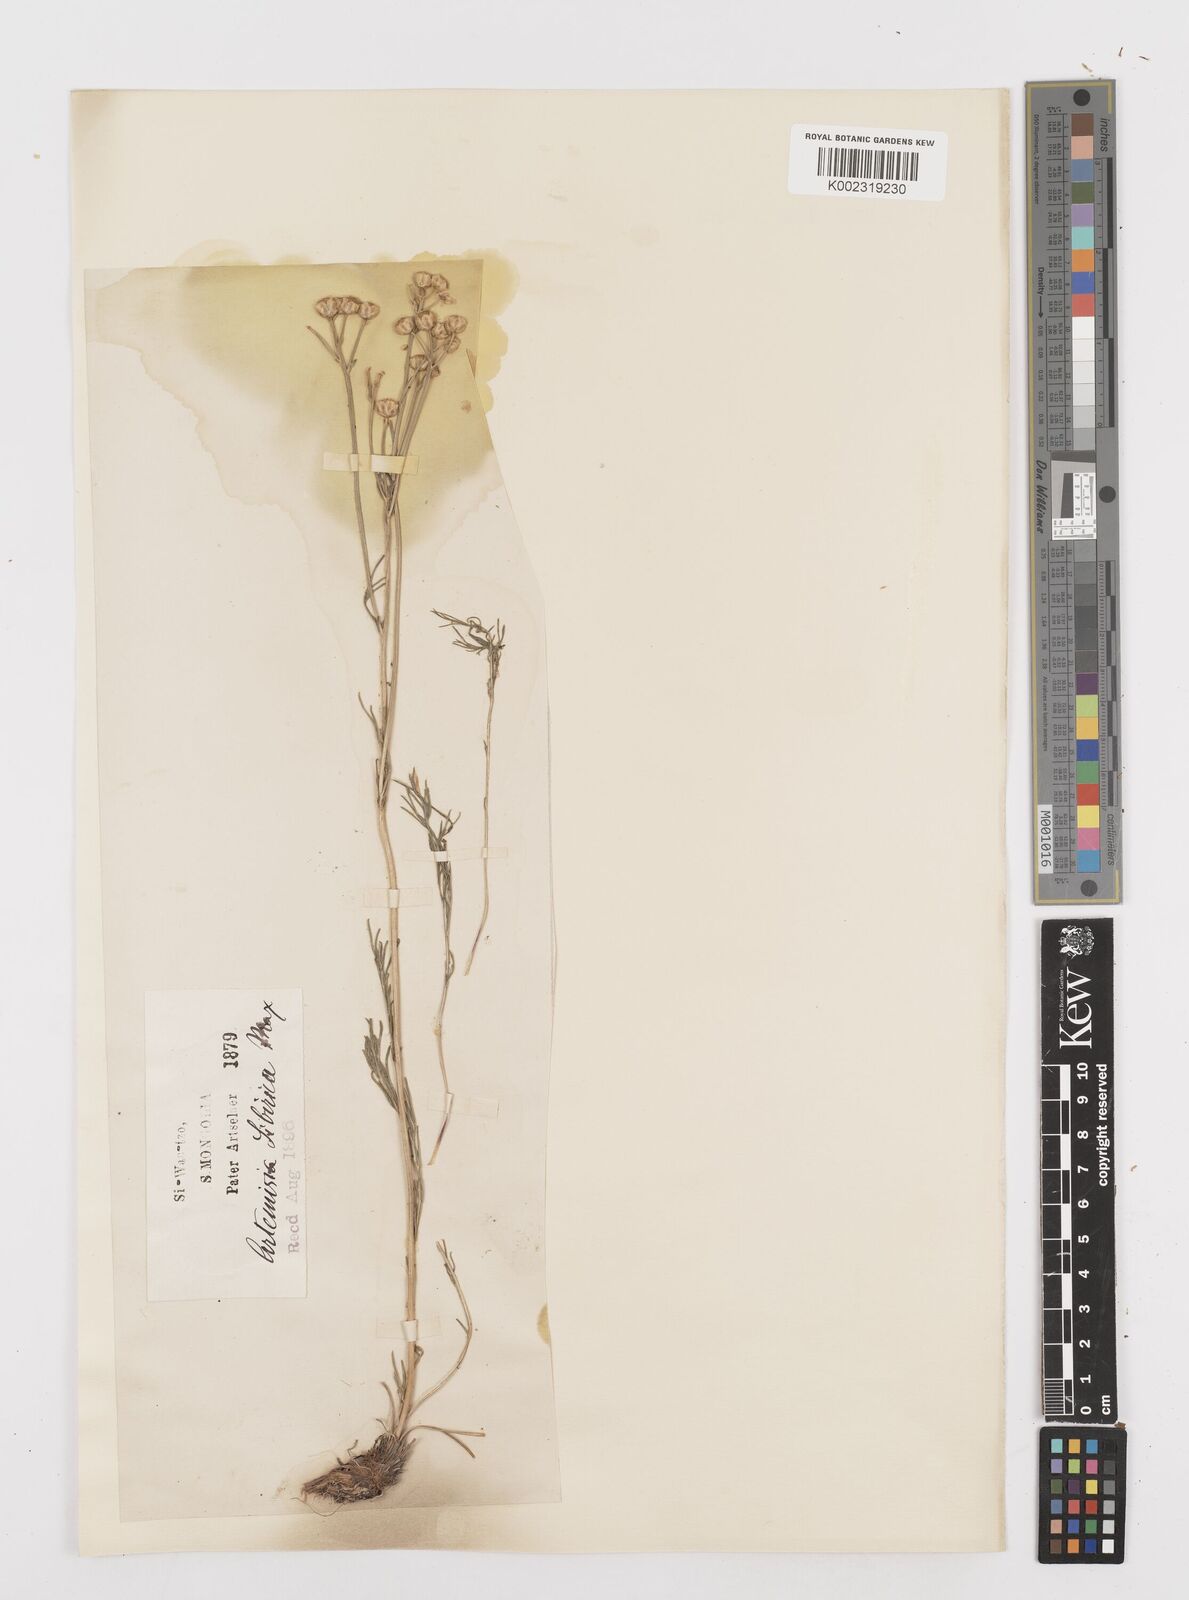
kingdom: Plantae
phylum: Tracheophyta
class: Magnoliopsida
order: Asterales
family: Asteraceae
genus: Filifolium
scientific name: Filifolium sibiricum
